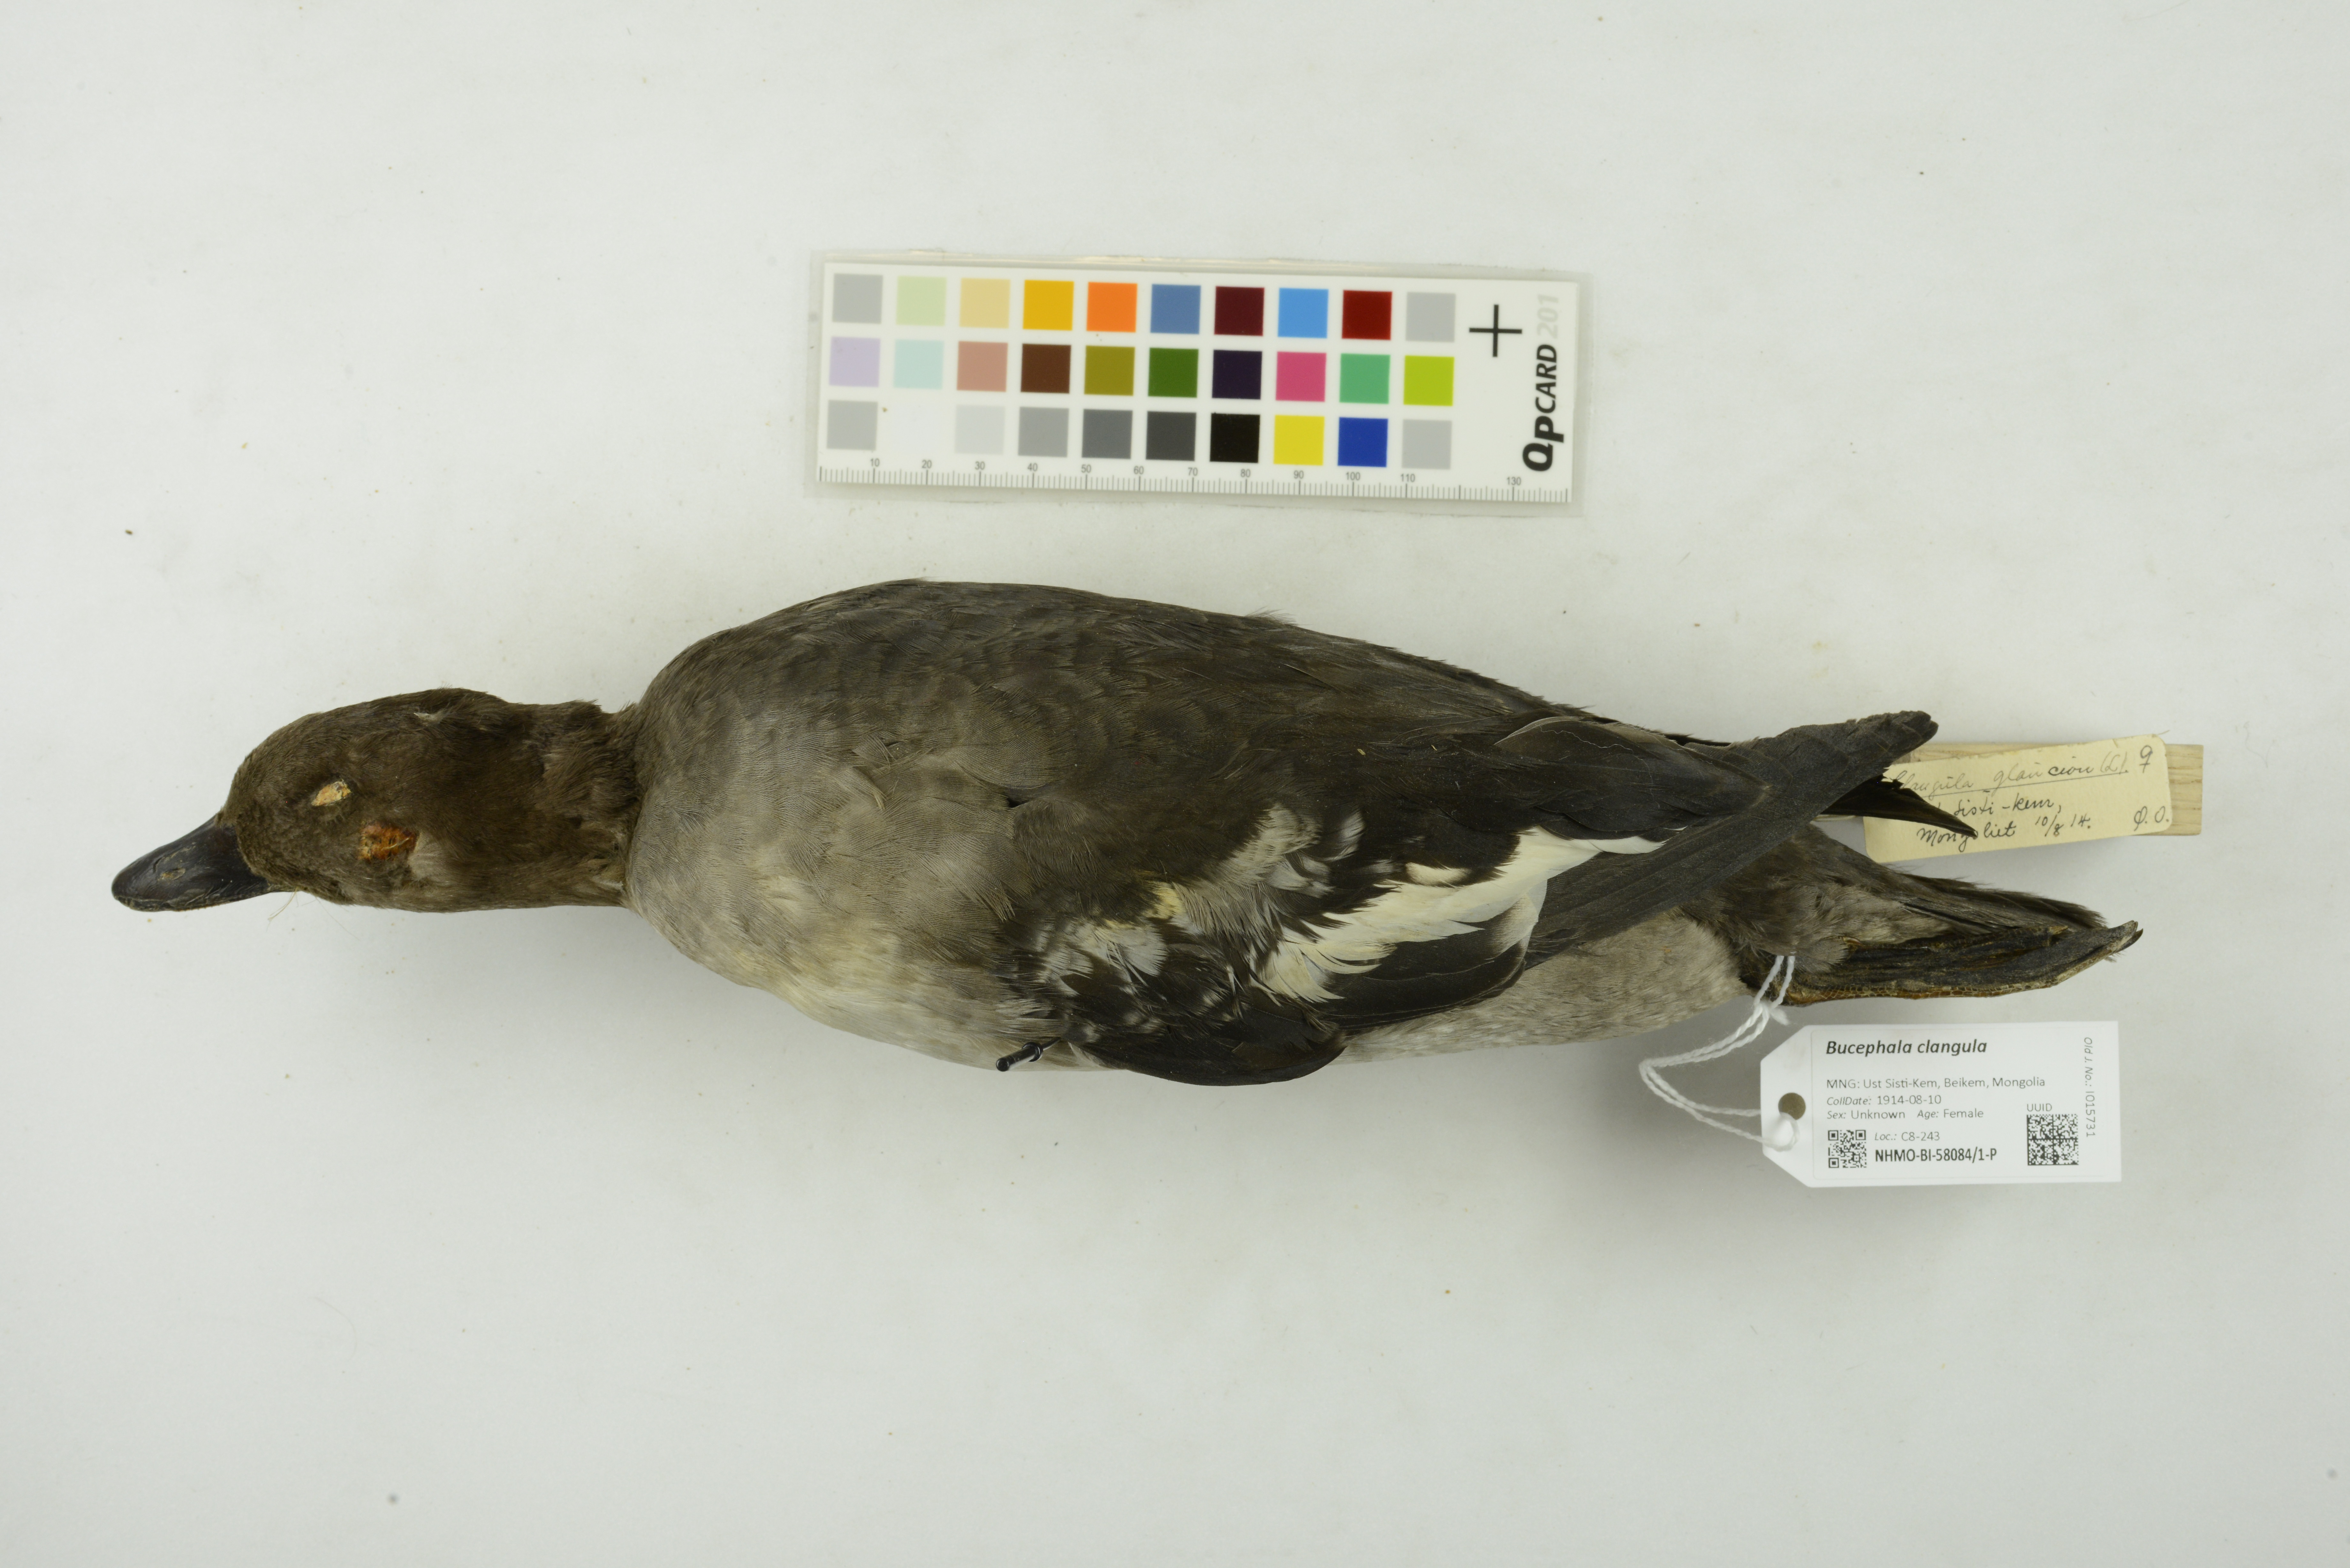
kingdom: Animalia
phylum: Chordata
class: Aves
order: Anseriformes
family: Anatidae
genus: Bucephala
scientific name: Bucephala clangula
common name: Common goldeneye
